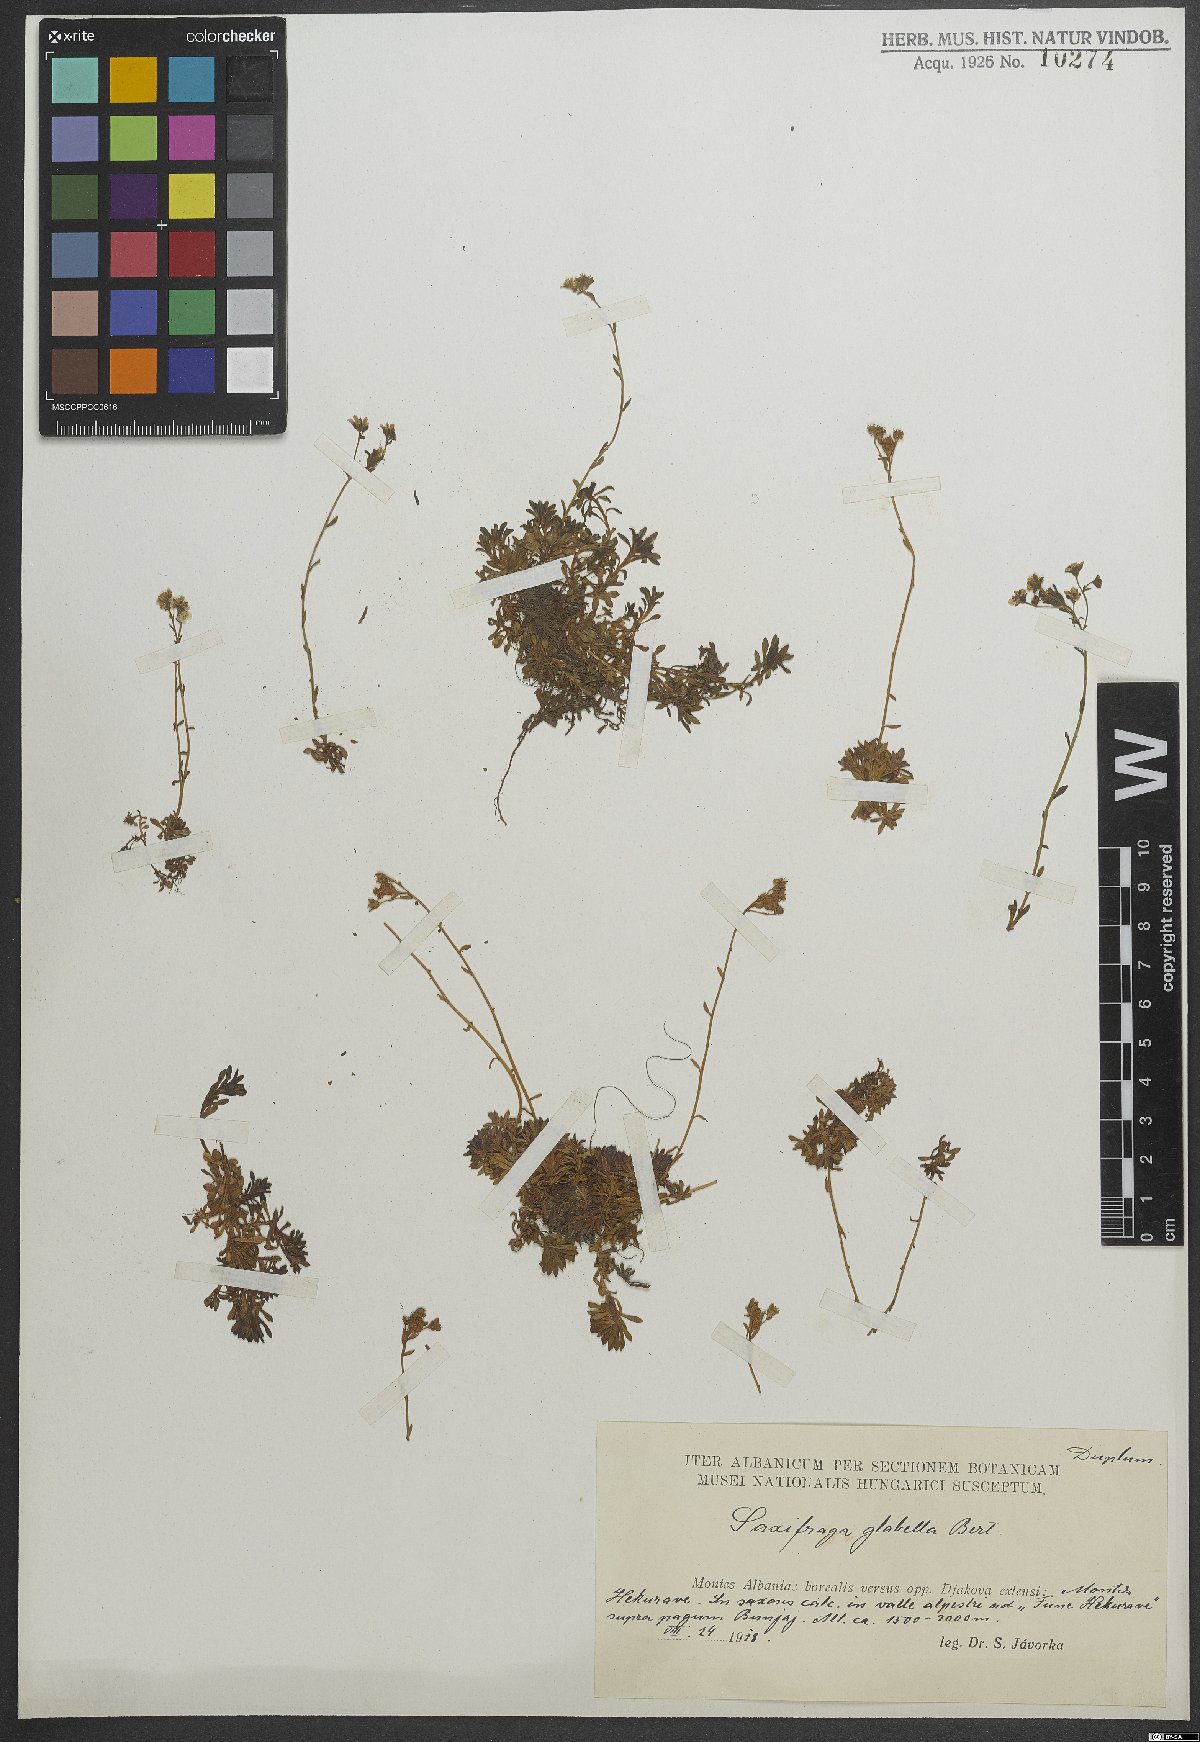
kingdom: Plantae
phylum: Tracheophyta
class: Magnoliopsida
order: Saxifragales
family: Saxifragaceae
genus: Saxifraga
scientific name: Saxifraga glabella
